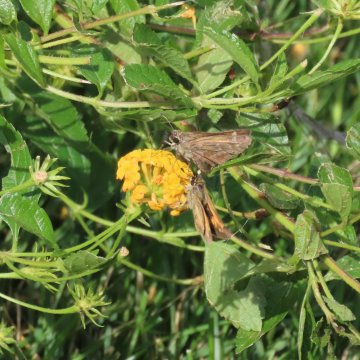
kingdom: Animalia
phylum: Arthropoda
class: Insecta
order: Lepidoptera
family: Hesperiidae
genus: Atalopedes
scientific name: Atalopedes campestris
